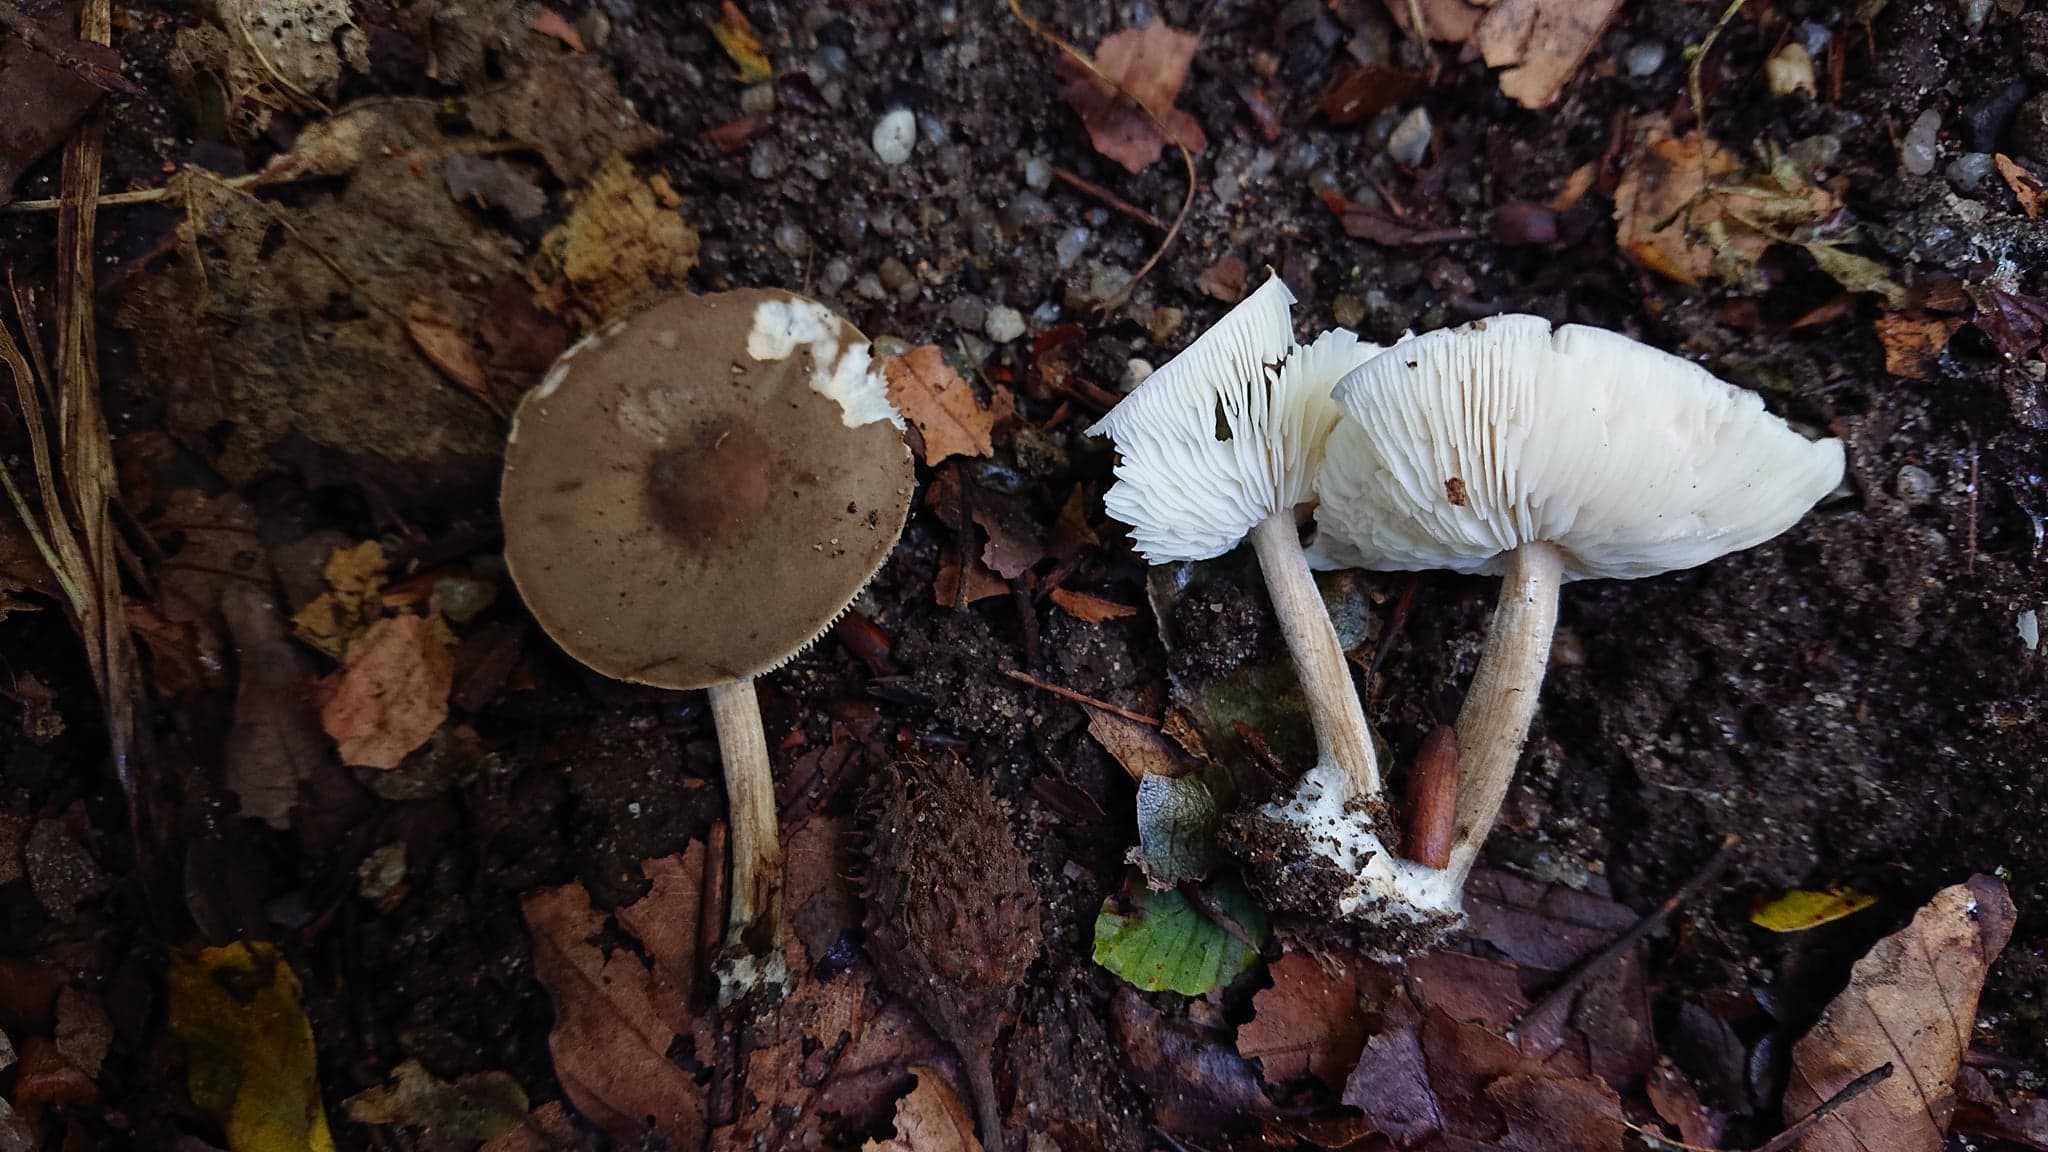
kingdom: Fungi
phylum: Basidiomycota
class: Agaricomycetes
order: Agaricales
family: Tricholomataceae
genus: Melanoleuca
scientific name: Melanoleuca polioleuca
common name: hvidbladet munkehat
